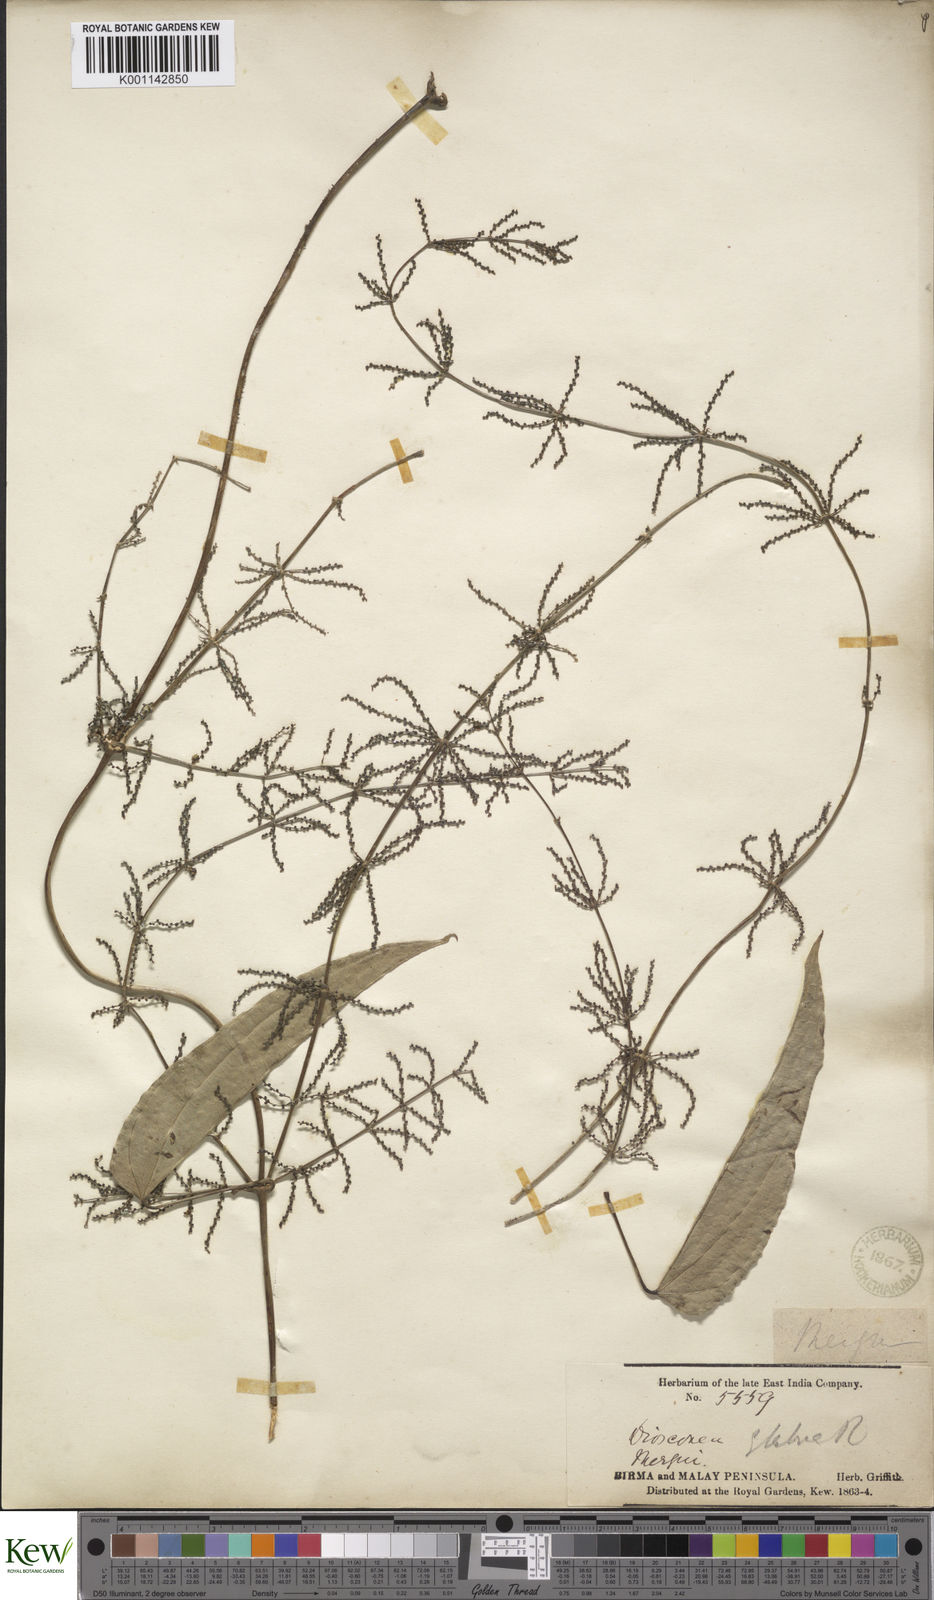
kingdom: Plantae
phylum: Tracheophyta
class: Liliopsida
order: Dioscoreales
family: Dioscoreaceae
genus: Dioscorea
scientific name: Dioscorea glabra
